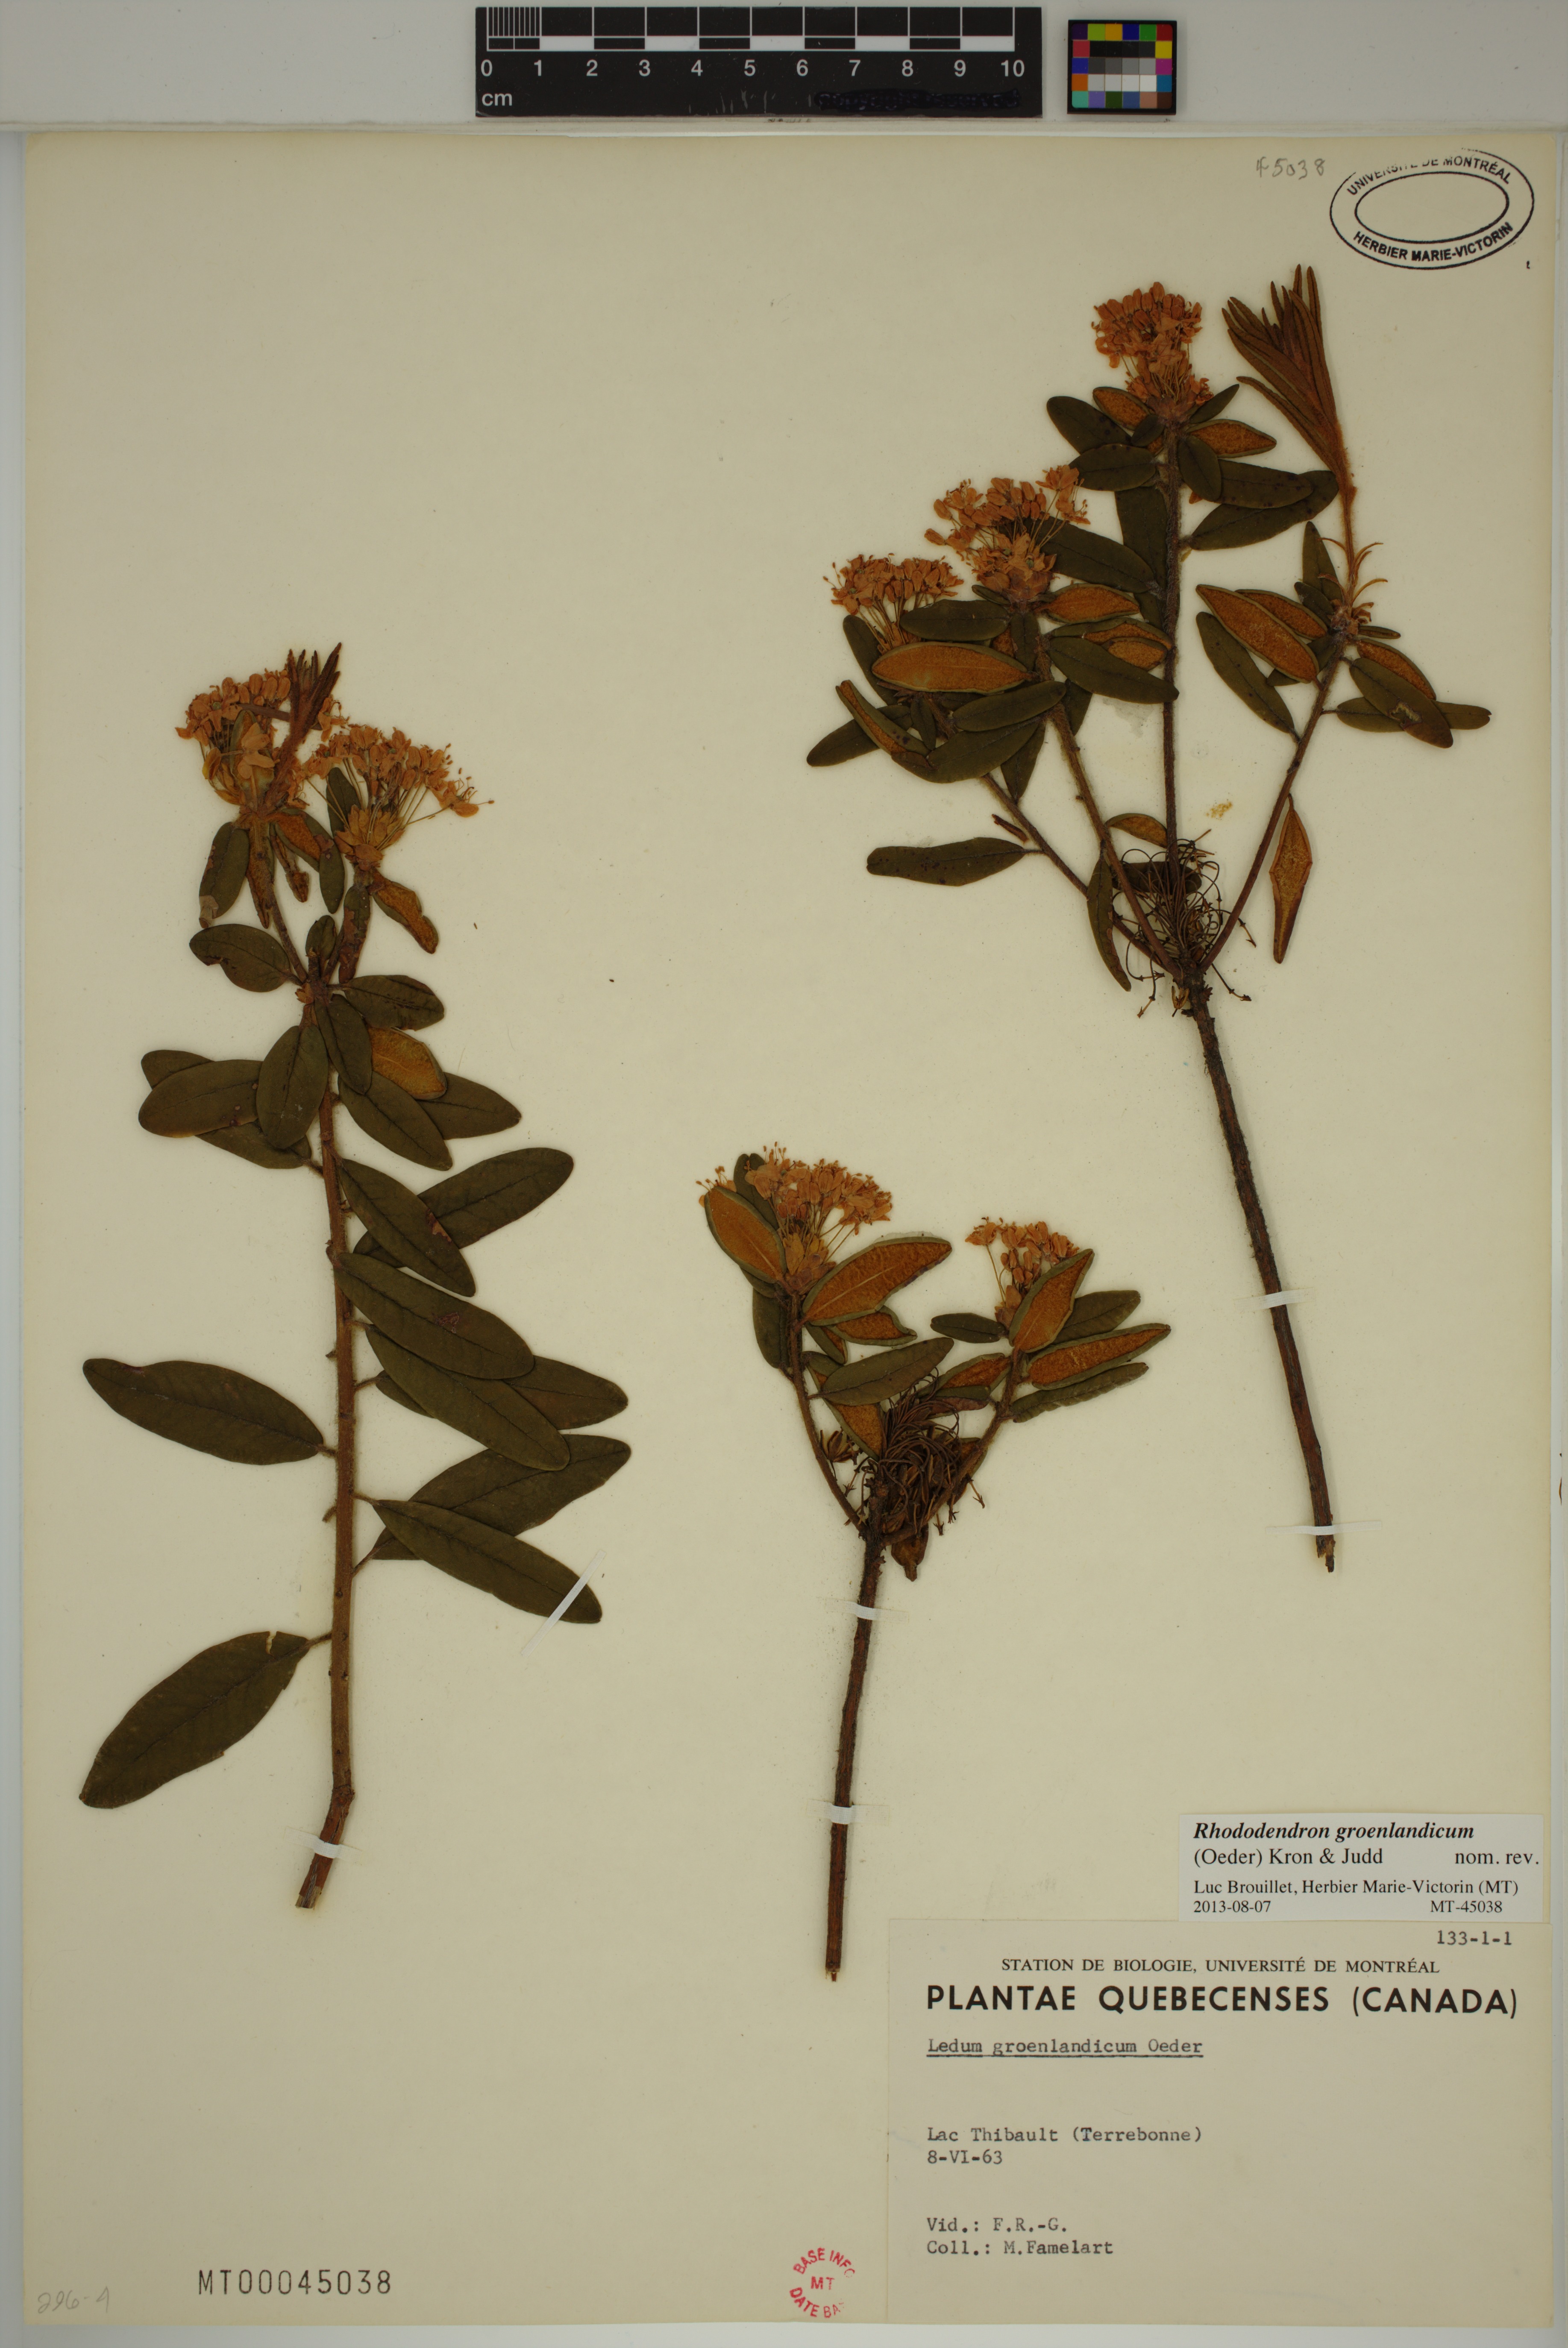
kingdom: Plantae
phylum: Tracheophyta
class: Magnoliopsida
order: Ericales
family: Ericaceae
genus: Rhododendron
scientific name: Rhododendron groenlandicum
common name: Bog labrador tea
